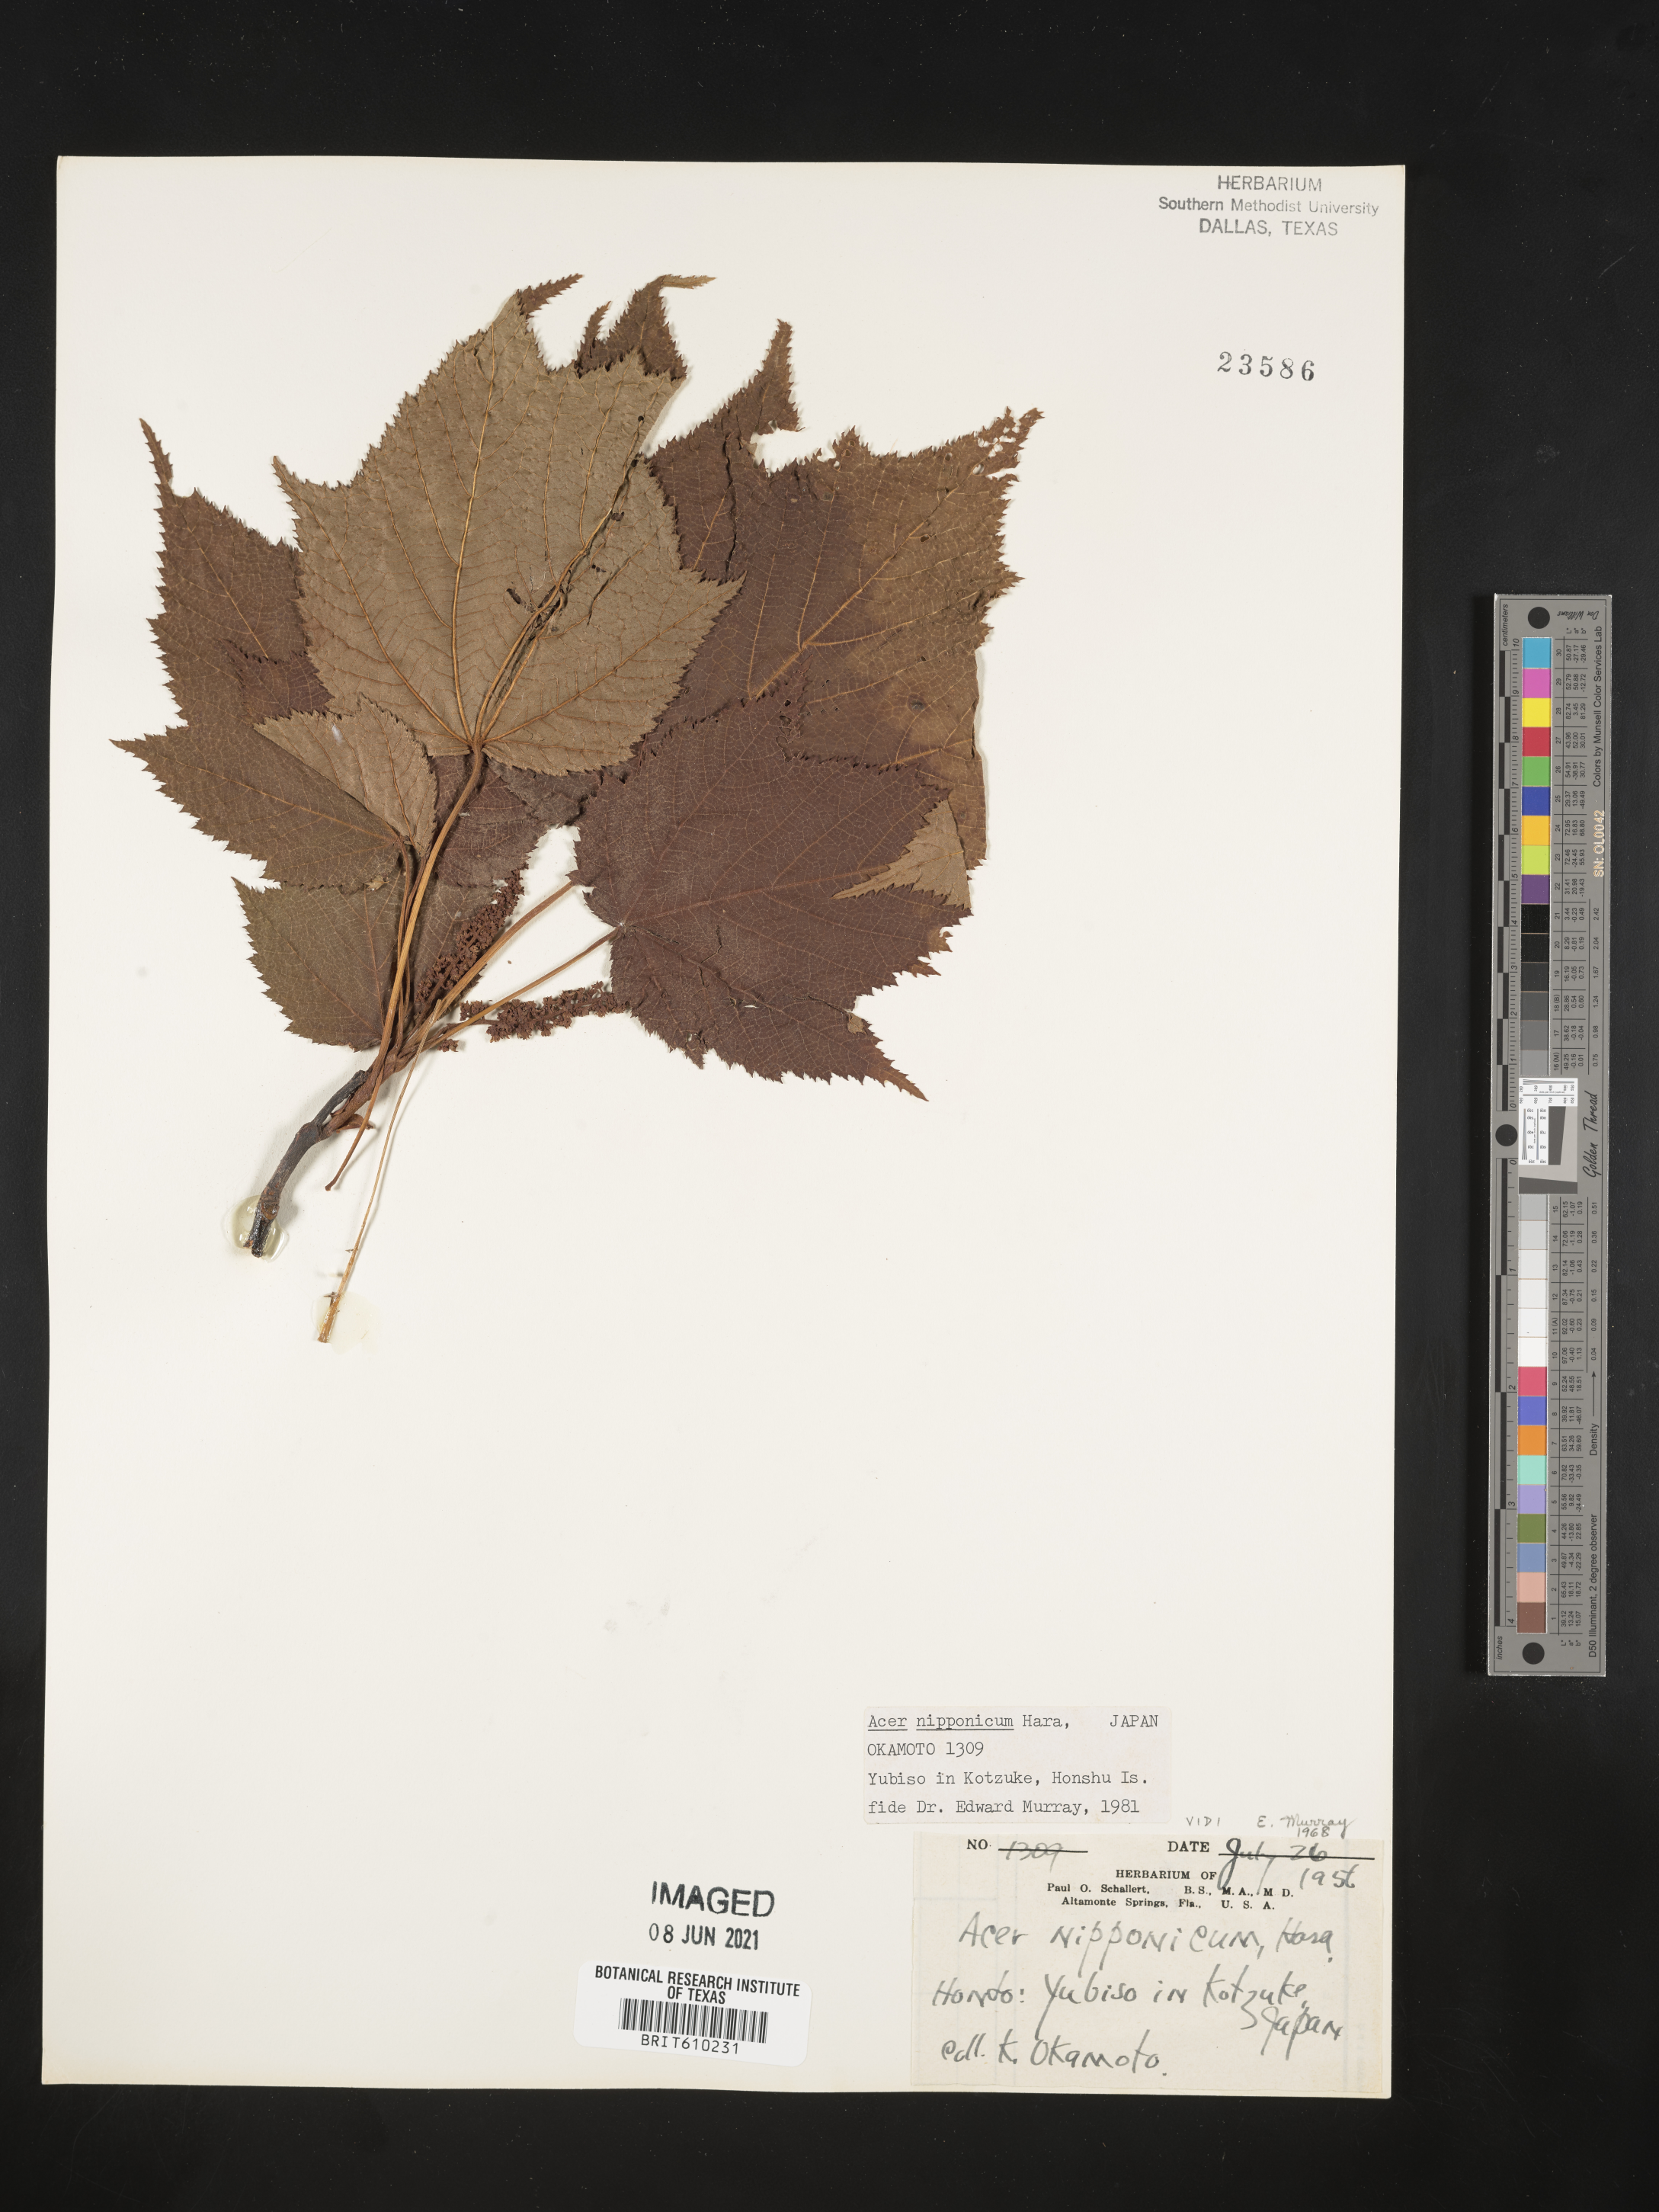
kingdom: Plantae
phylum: Tracheophyta
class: Magnoliopsida
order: Sapindales
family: Sapindaceae
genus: Acer
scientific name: Acer nipponicum
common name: Nippon maple
